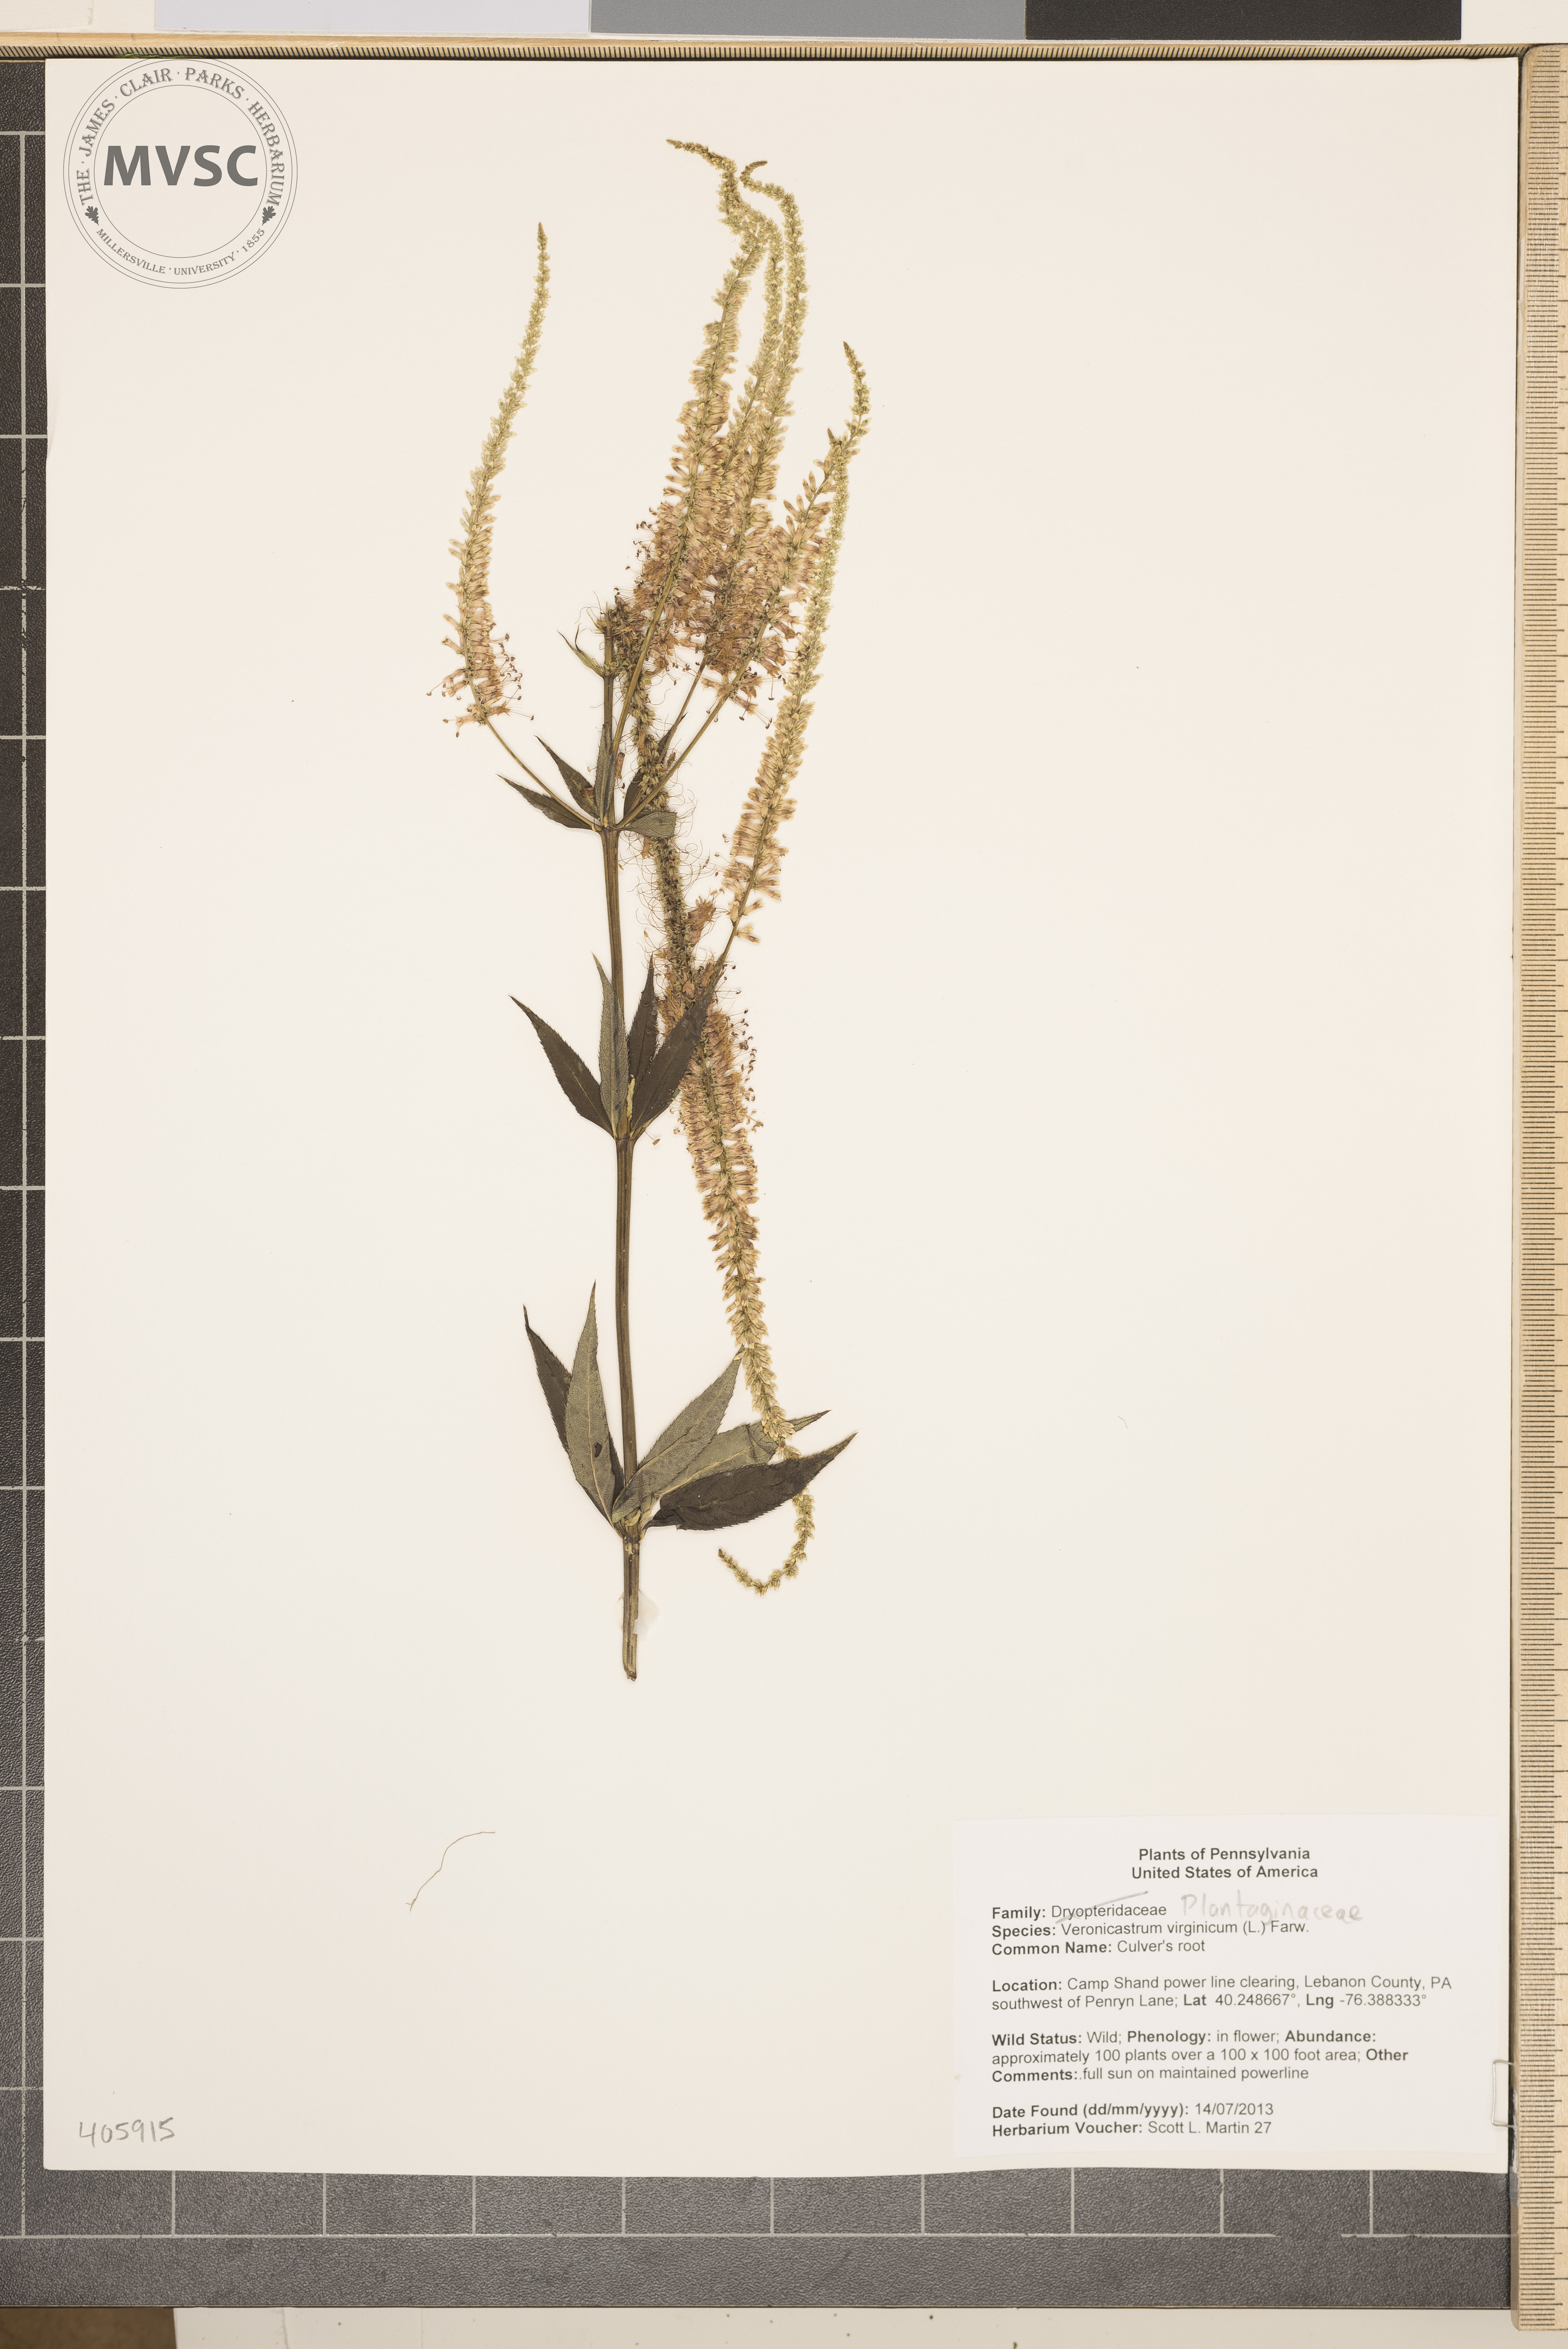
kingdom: Plantae
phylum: Tracheophyta
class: Magnoliopsida
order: Lamiales
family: Plantaginaceae
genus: Veronicastrum
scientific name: Veronicastrum virginicum
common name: Culver's root
